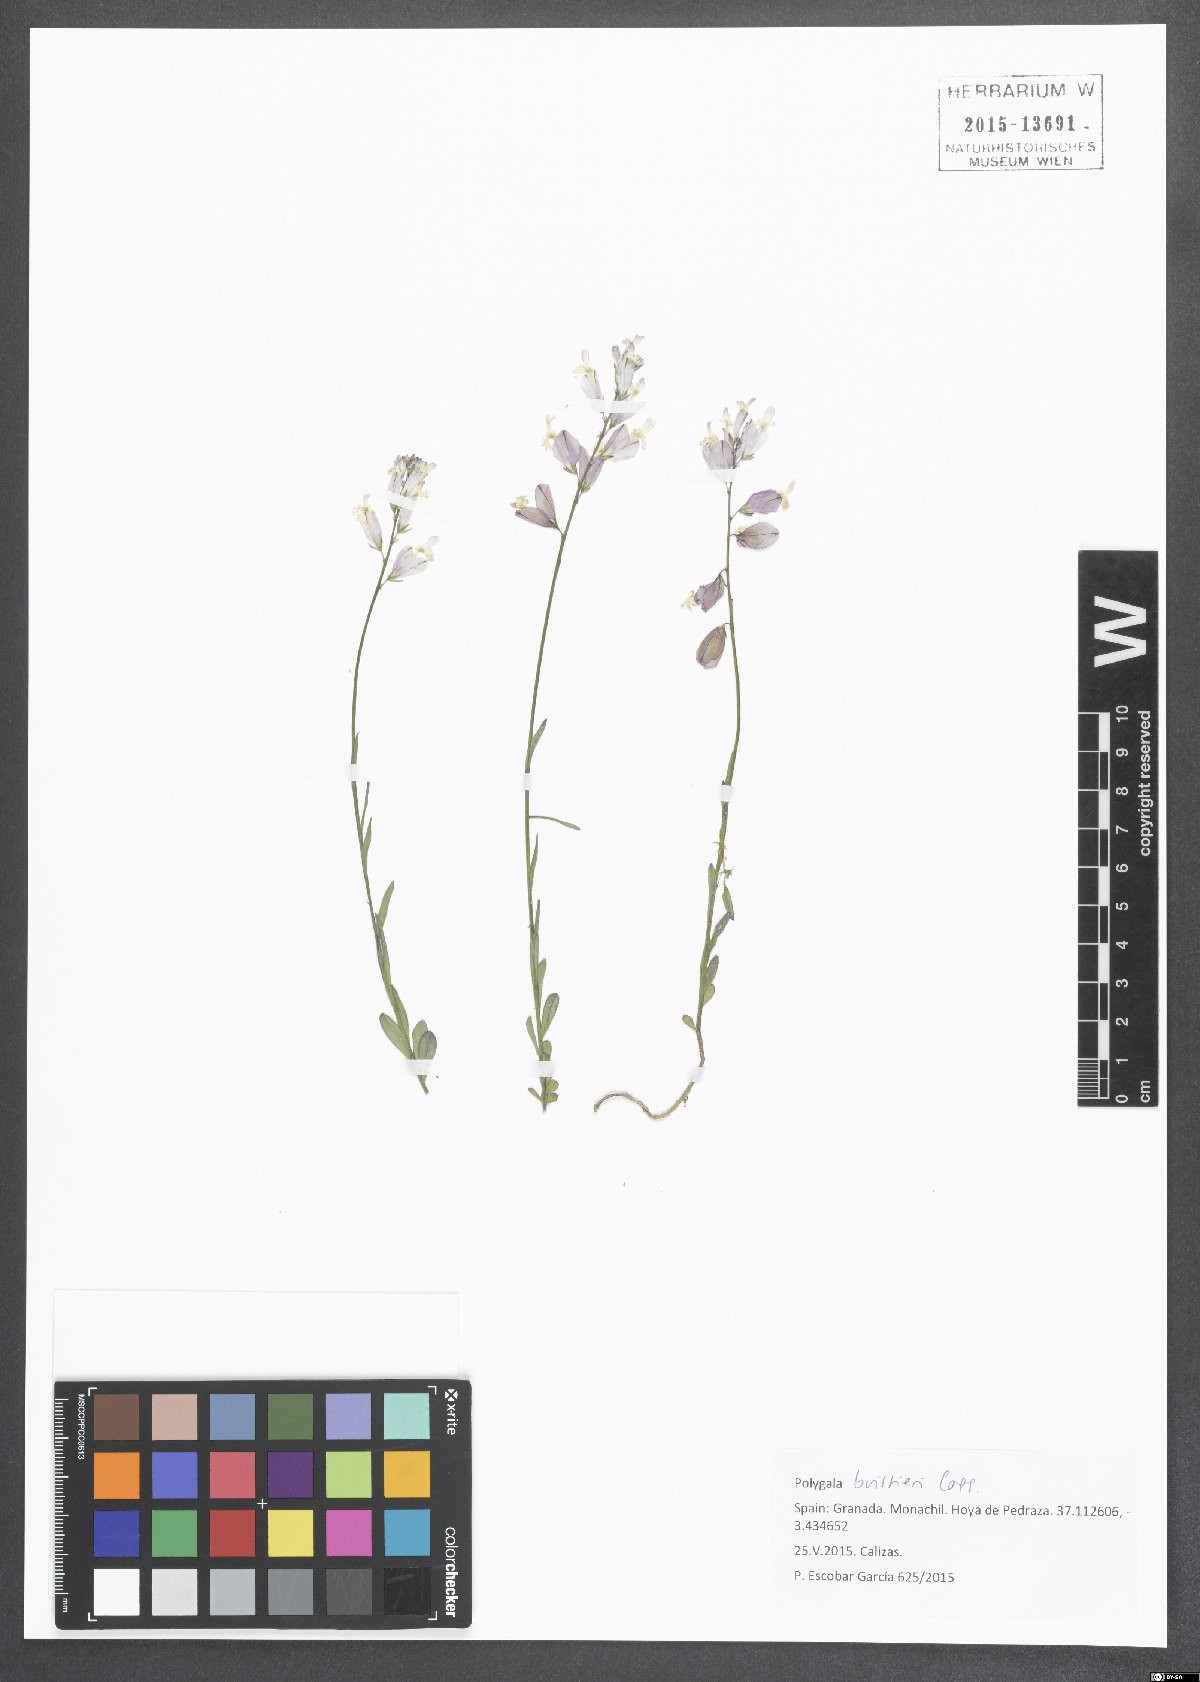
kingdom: Plantae
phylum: Tracheophyta
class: Magnoliopsida
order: Fabales
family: Polygalaceae
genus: Polygala
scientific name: Polygala boissieri
